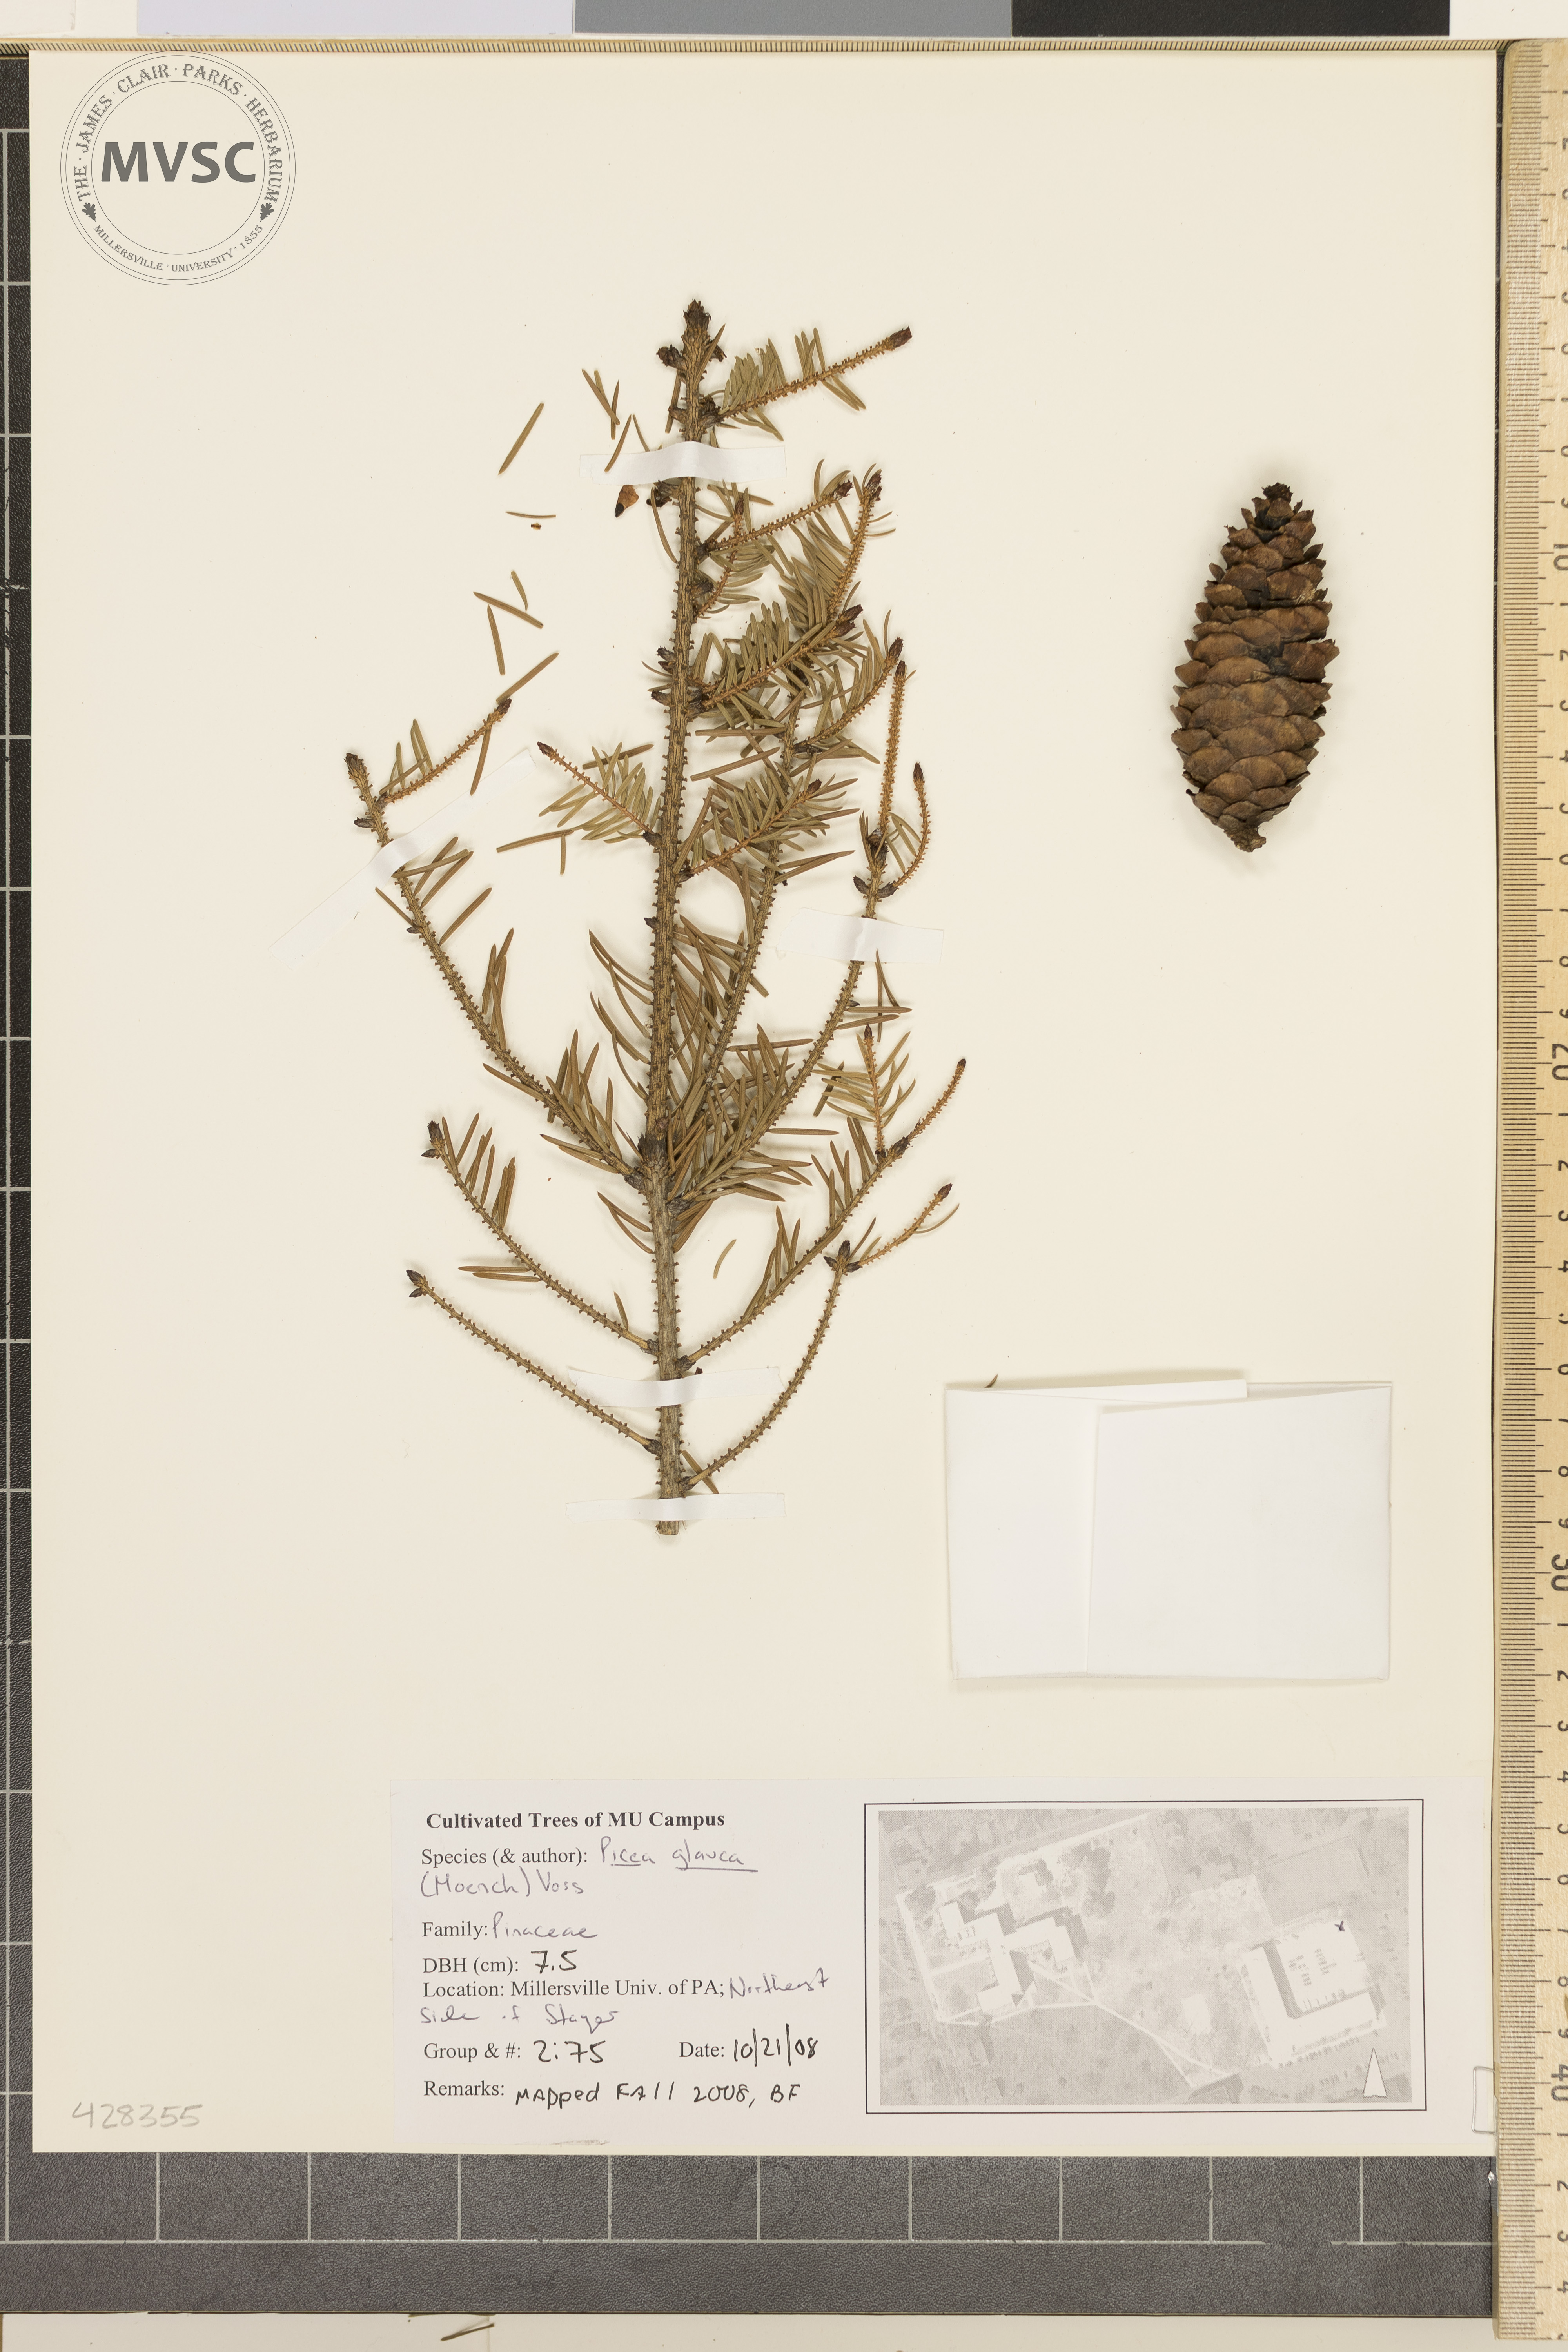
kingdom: Plantae
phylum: Tracheophyta
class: Pinopsida
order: Pinales
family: Pinaceae
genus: Picea
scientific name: Picea glauca
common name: White Spruce
